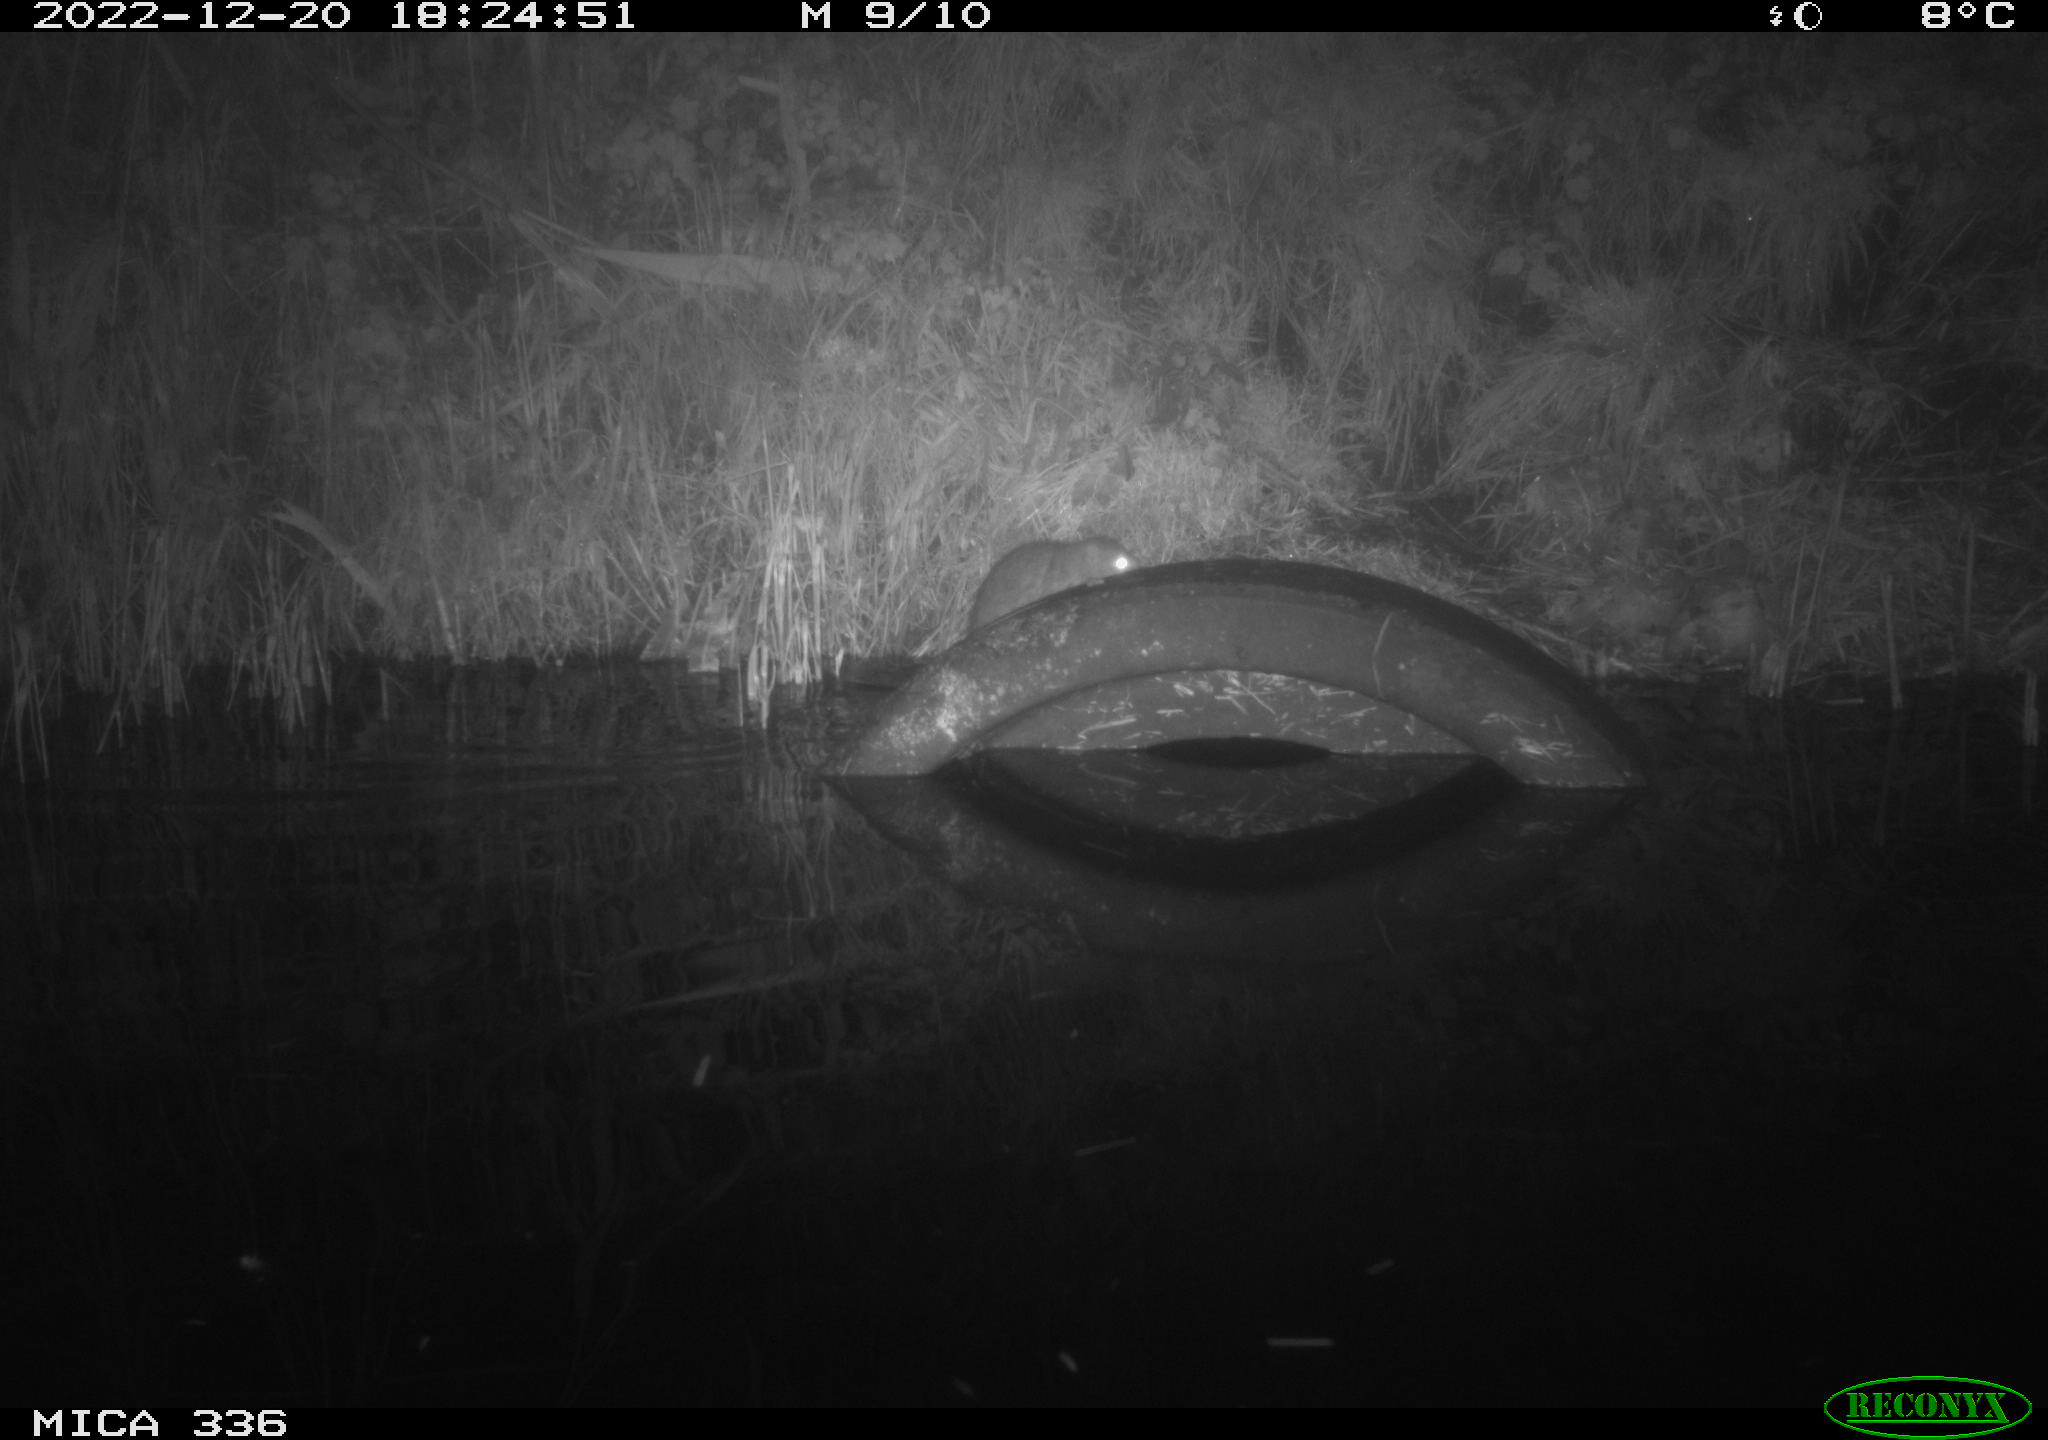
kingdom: Animalia
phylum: Chordata
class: Mammalia
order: Rodentia
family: Muridae
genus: Rattus
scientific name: Rattus norvegicus
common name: Brown rat
